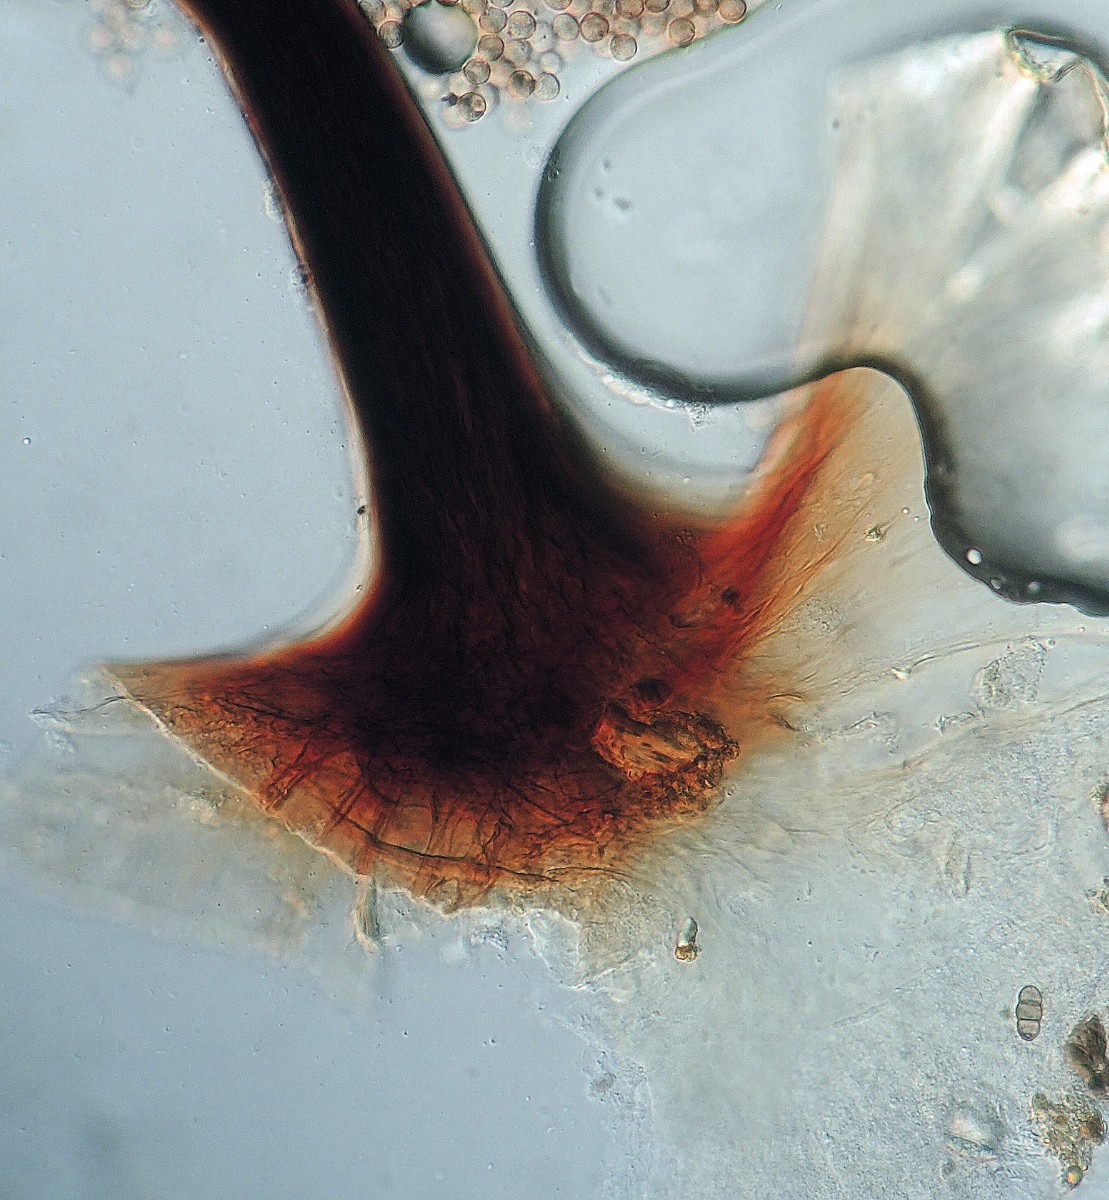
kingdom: Protozoa
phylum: Mycetozoa
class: Myxomycetes
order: Stemonitidales
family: Stemonitidaceae
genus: Comatricha
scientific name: Comatricha tenerrima
